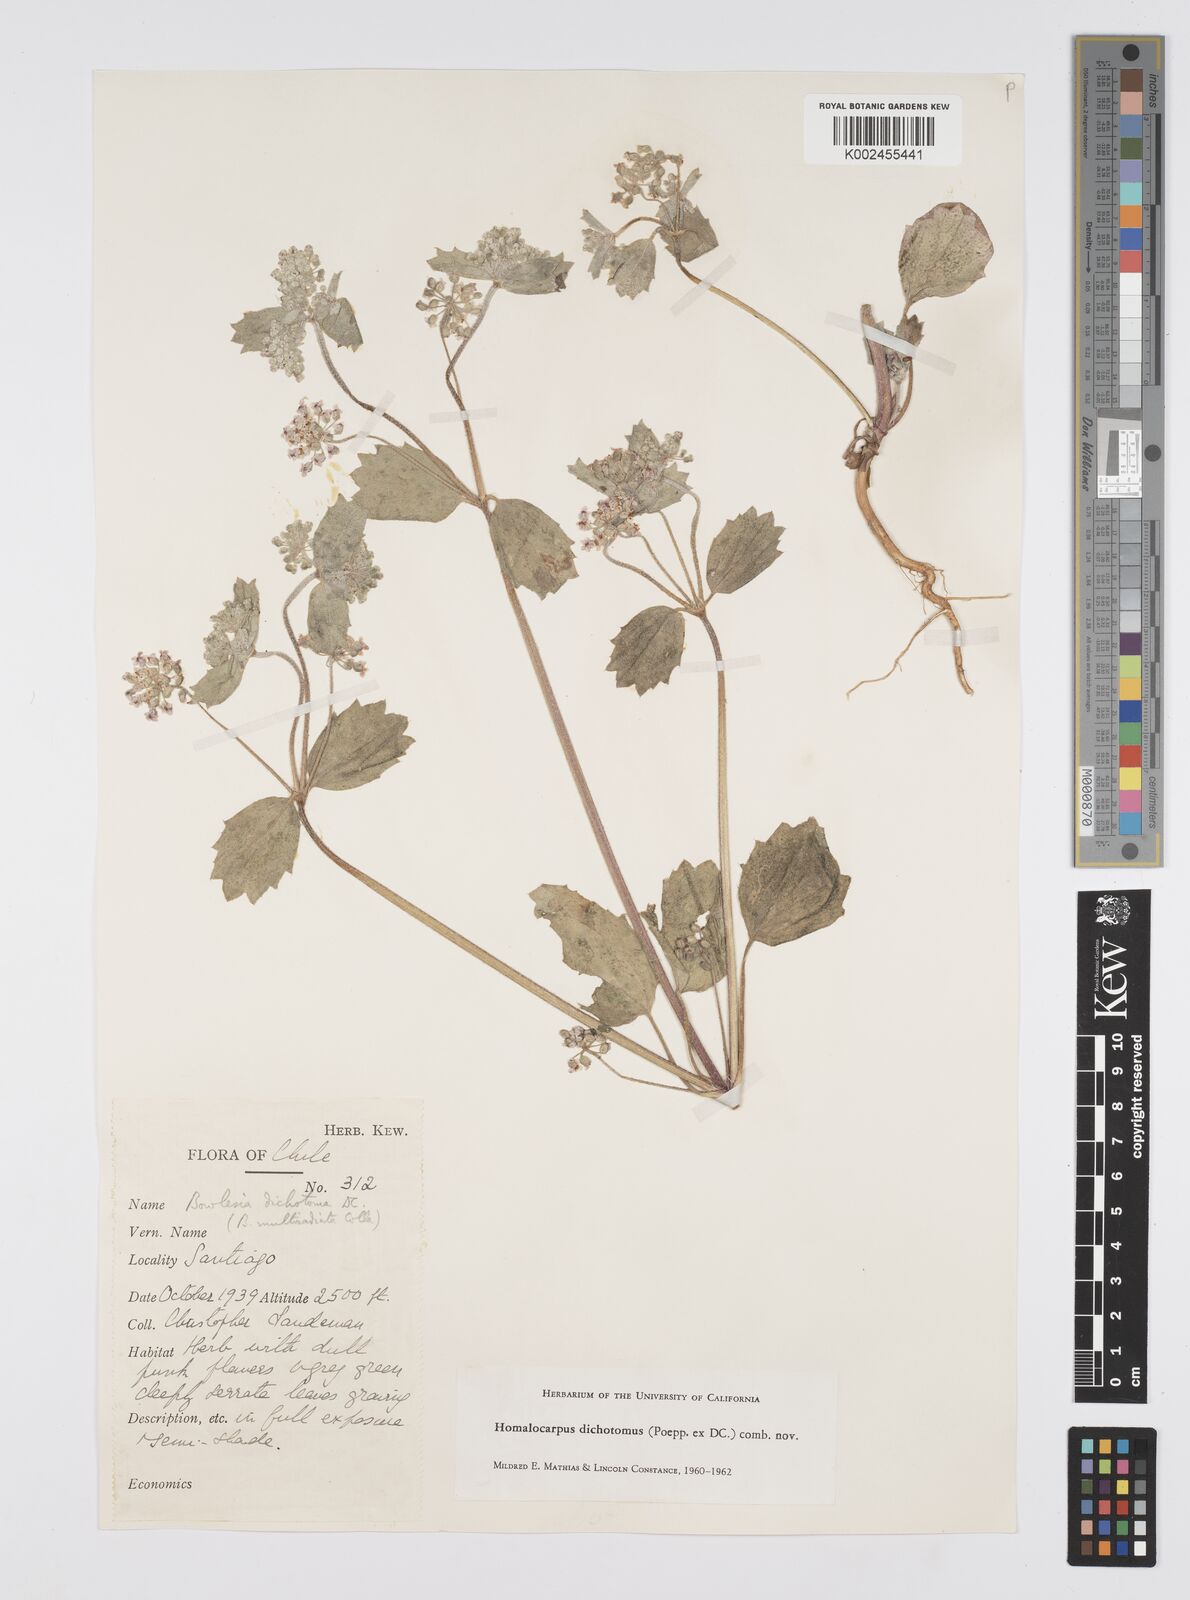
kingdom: Plantae
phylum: Tracheophyta
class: Magnoliopsida
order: Apiales
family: Apiaceae
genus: Homalocarpus
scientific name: Homalocarpus dichotomus
